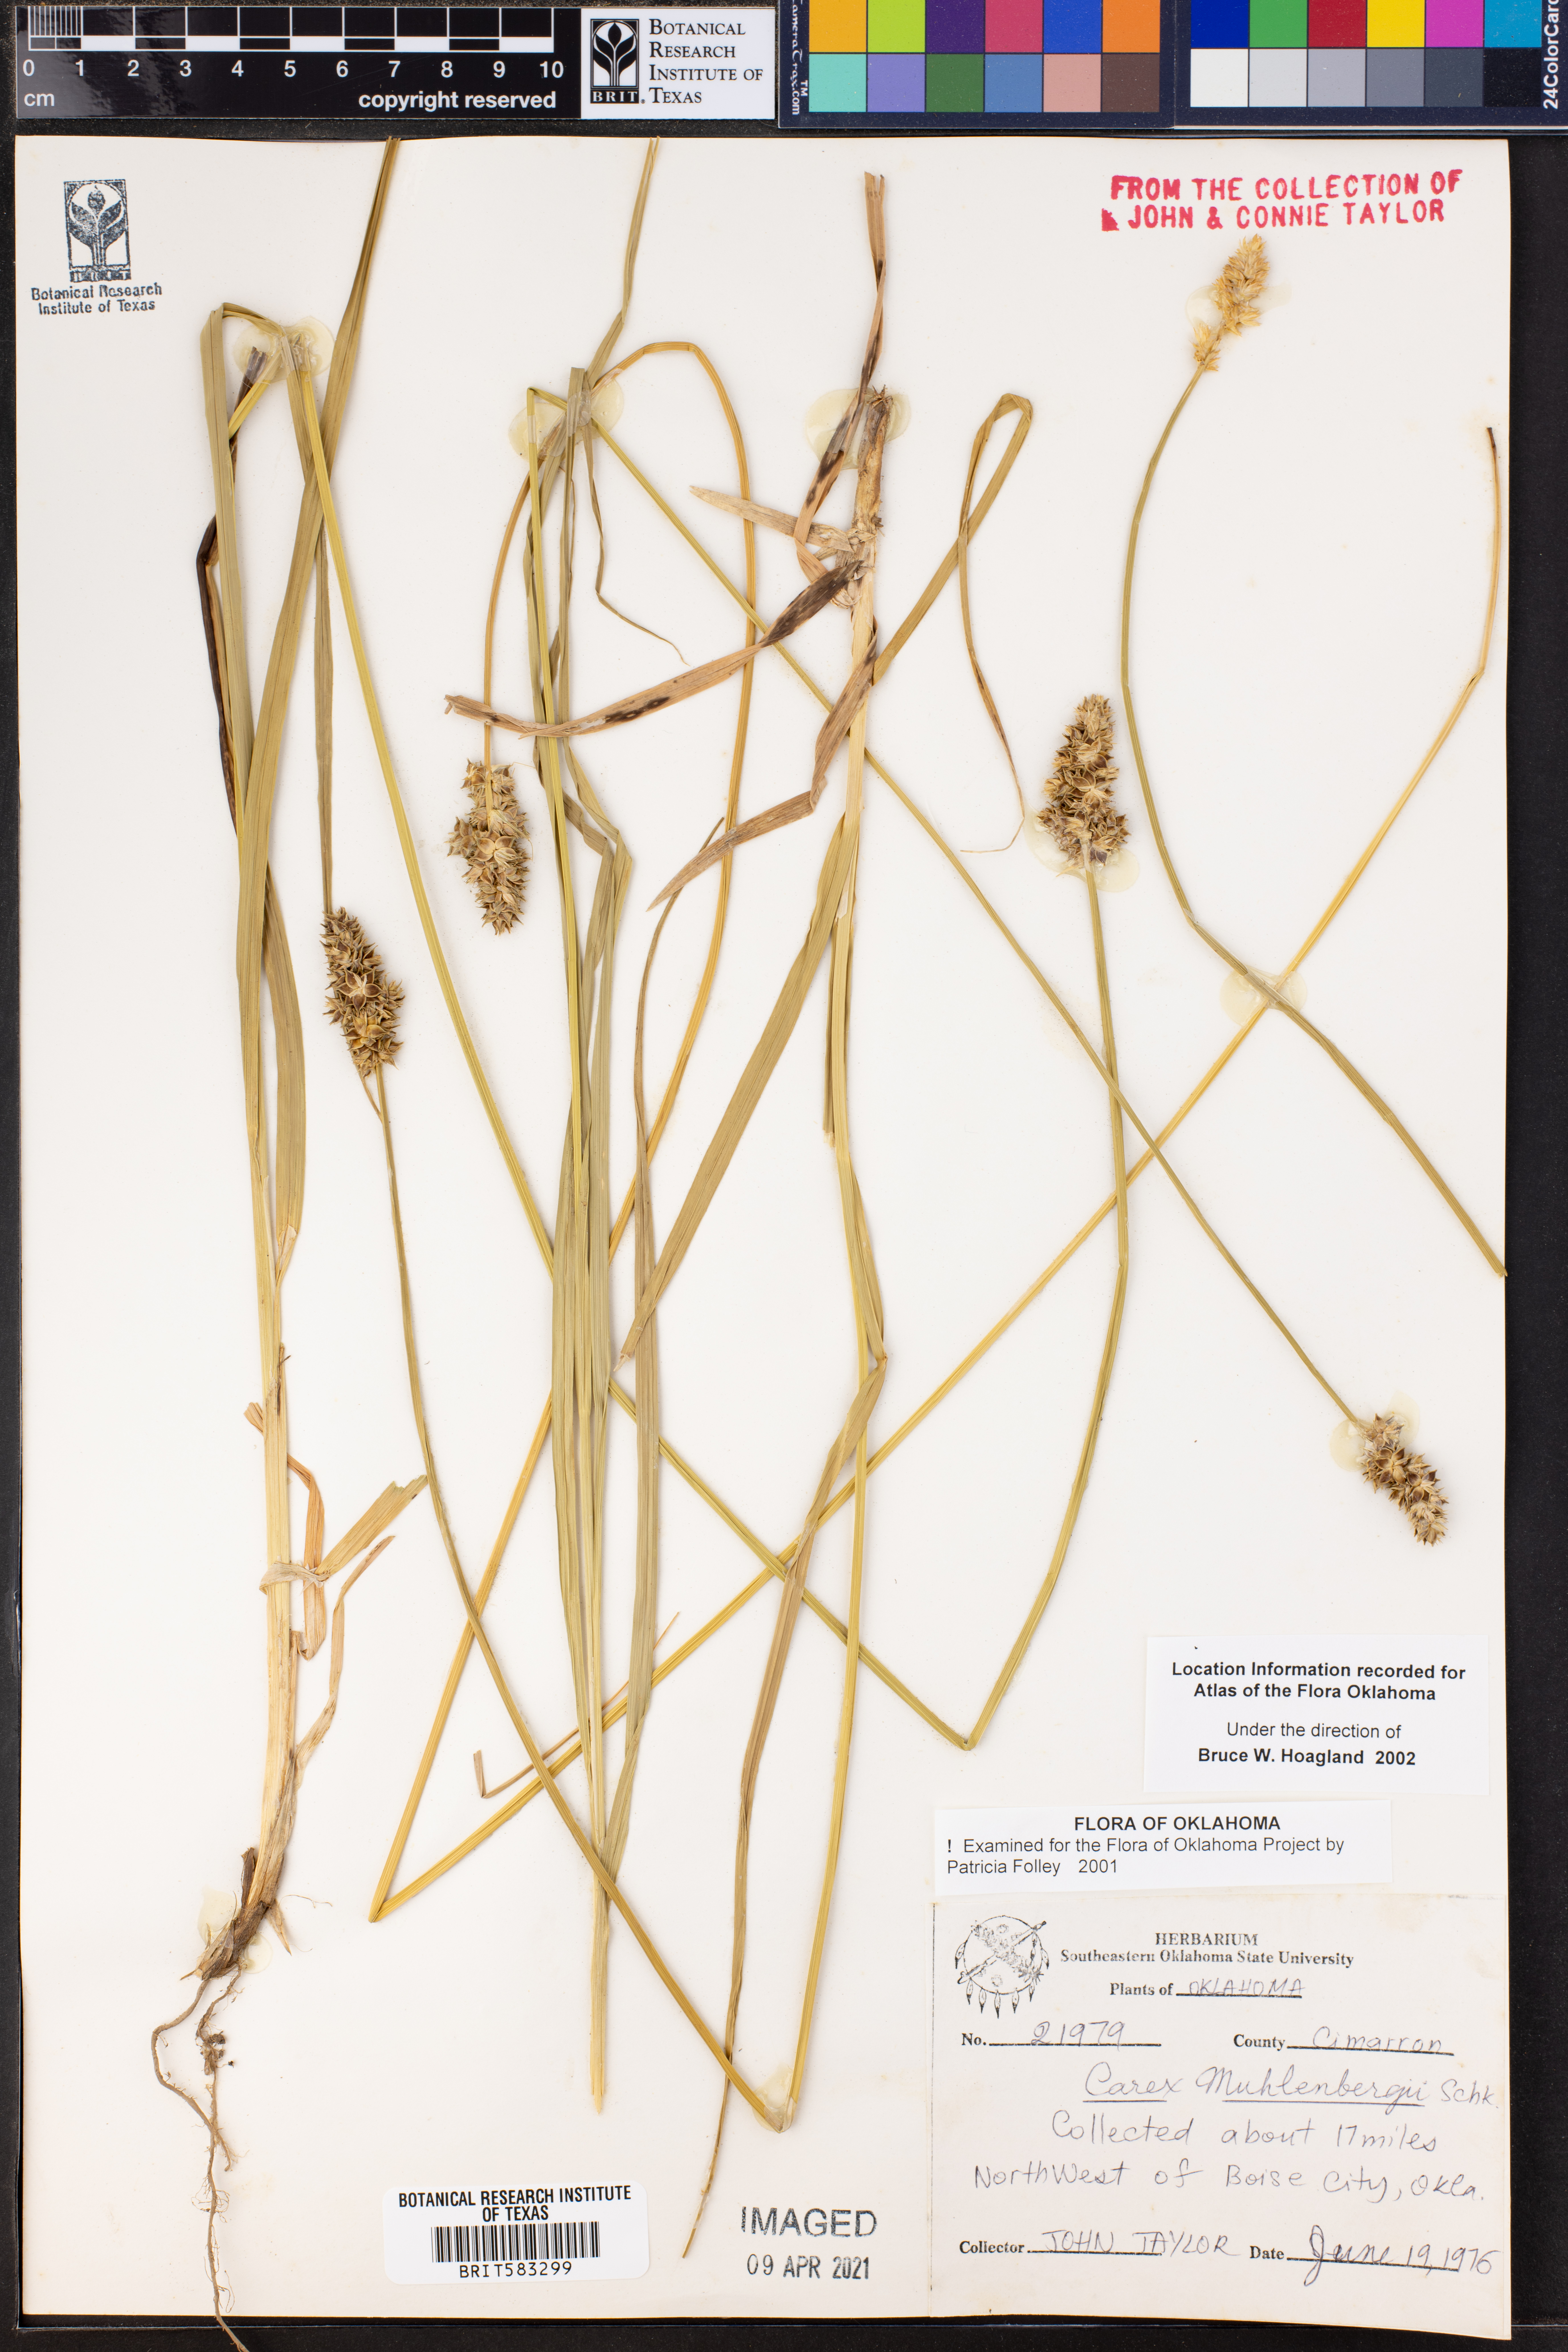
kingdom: Plantae
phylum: Tracheophyta
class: Liliopsida
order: Poales
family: Cyperaceae
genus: Carex
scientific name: Carex vulpinoidea
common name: American fox-sedge
